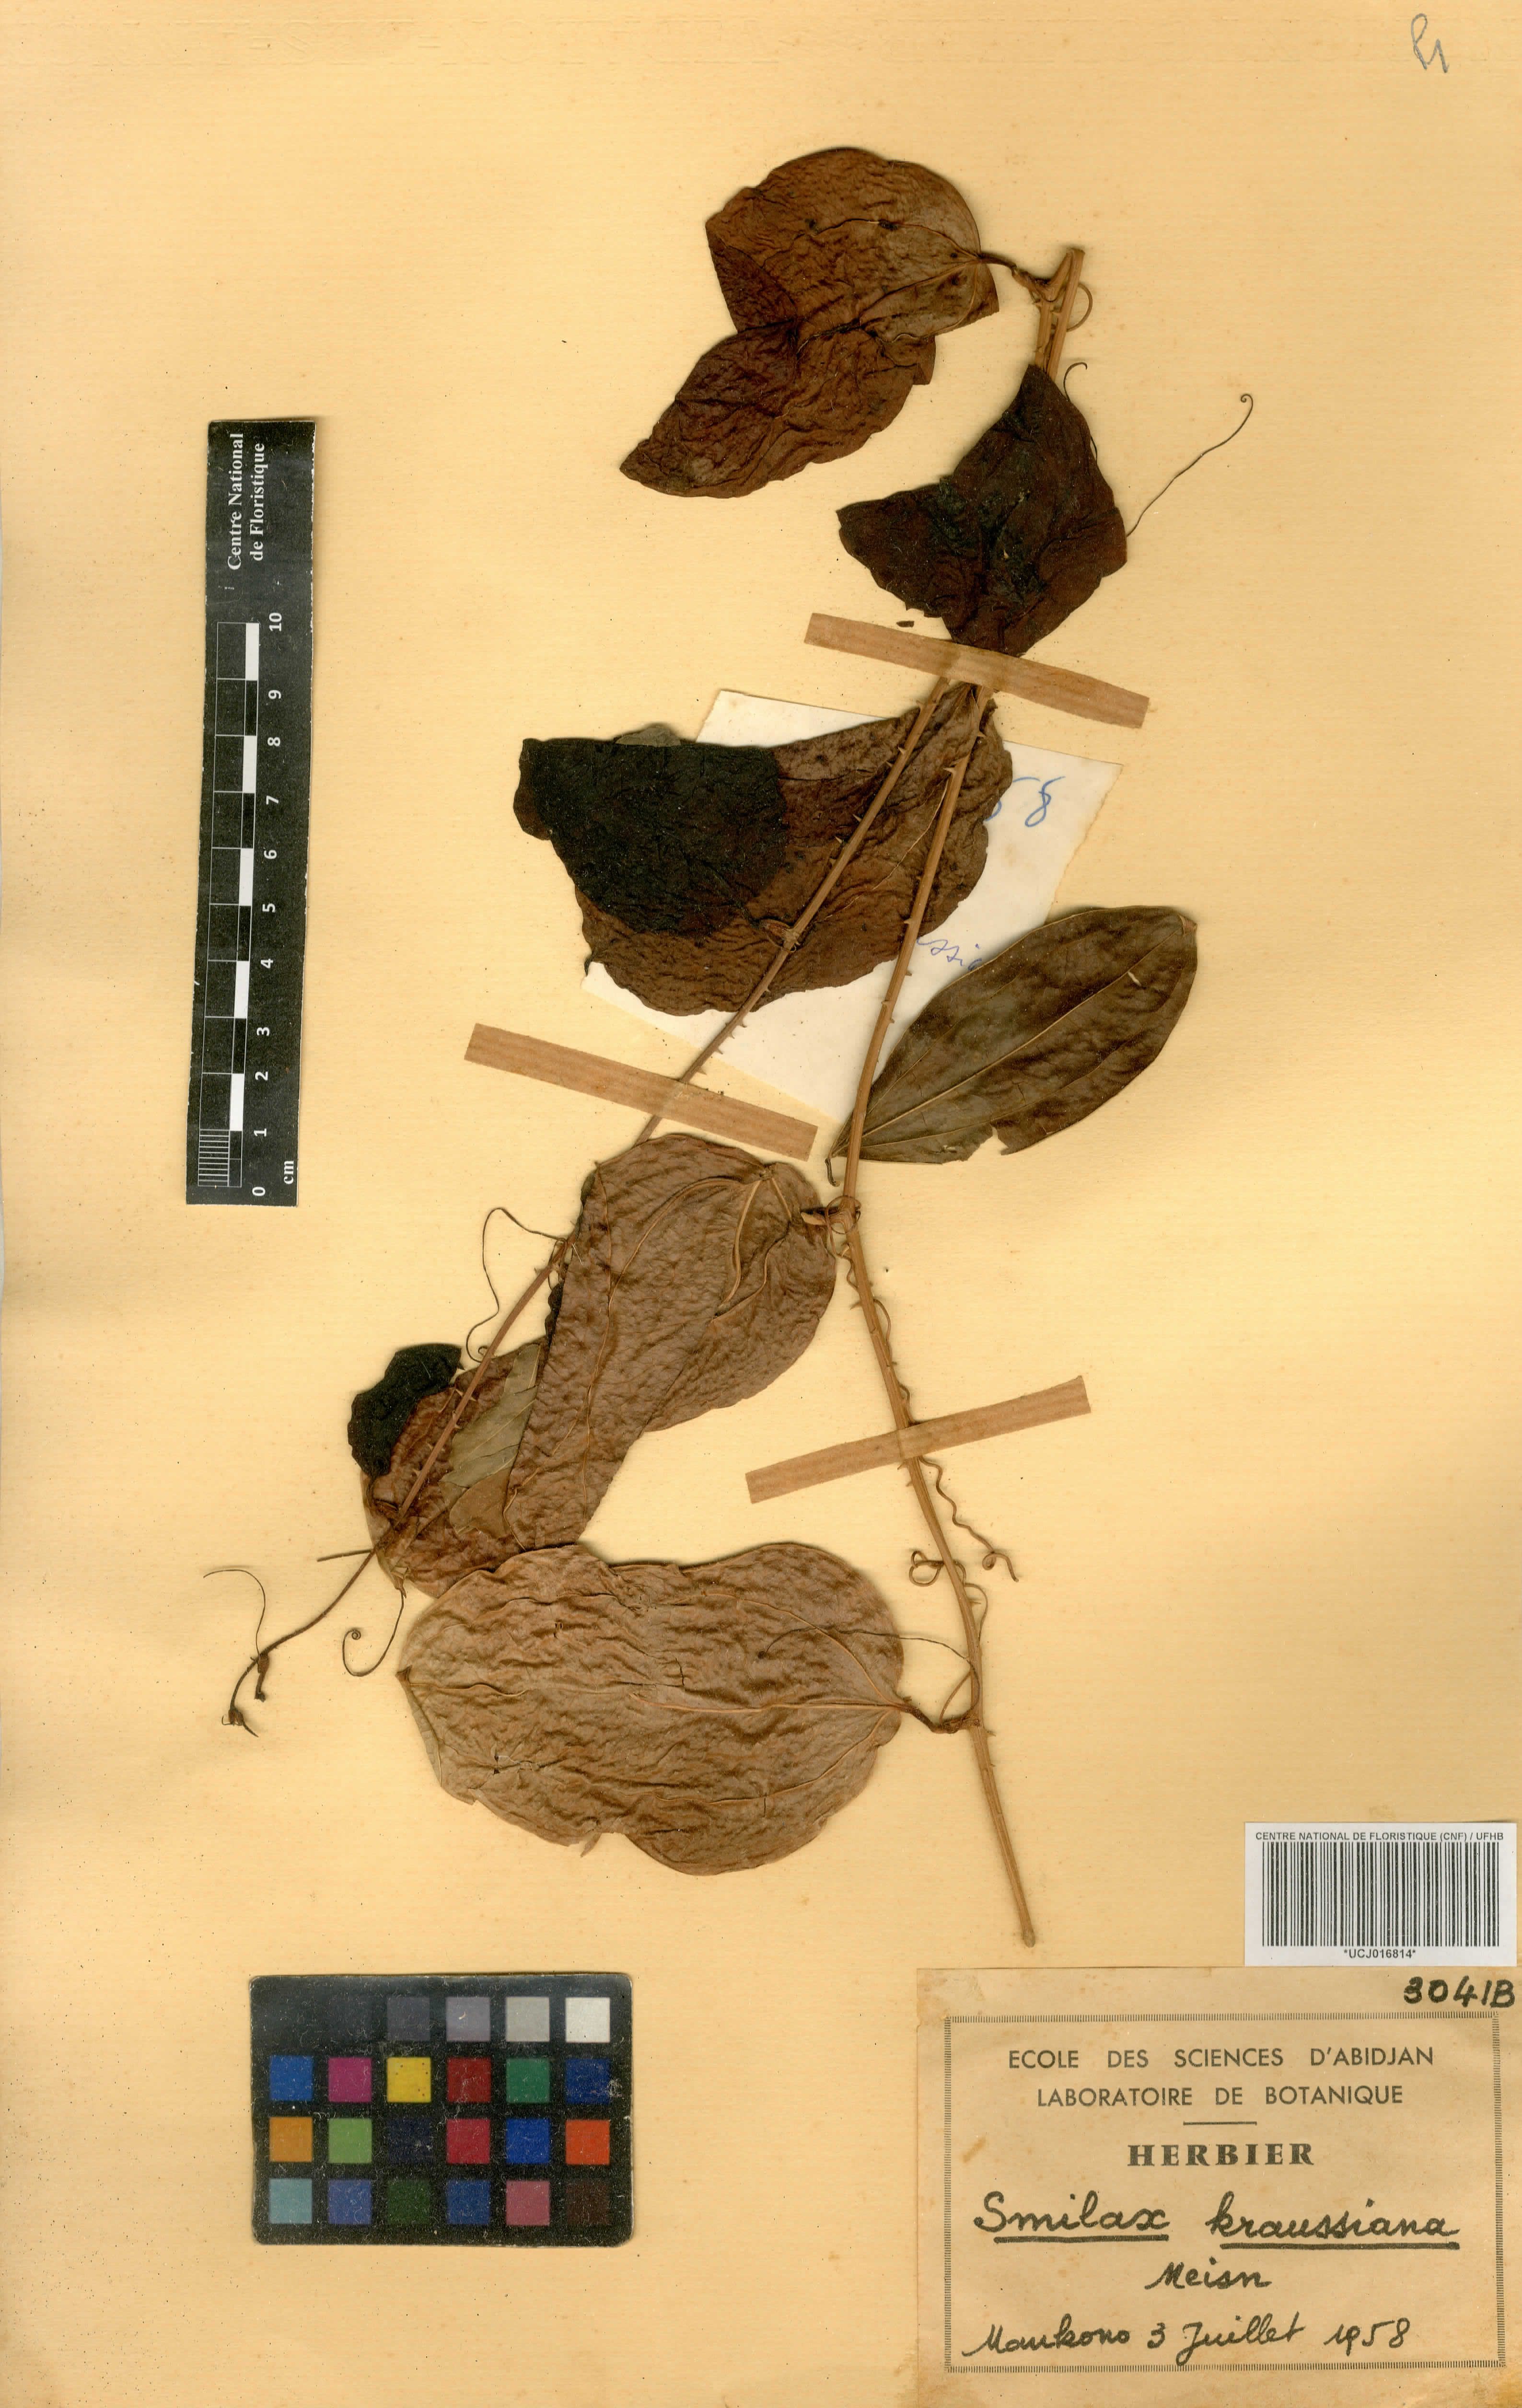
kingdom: Plantae
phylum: Tracheophyta
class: Liliopsida
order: Liliales
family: Smilacaceae
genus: Smilax
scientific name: Smilax anceps
